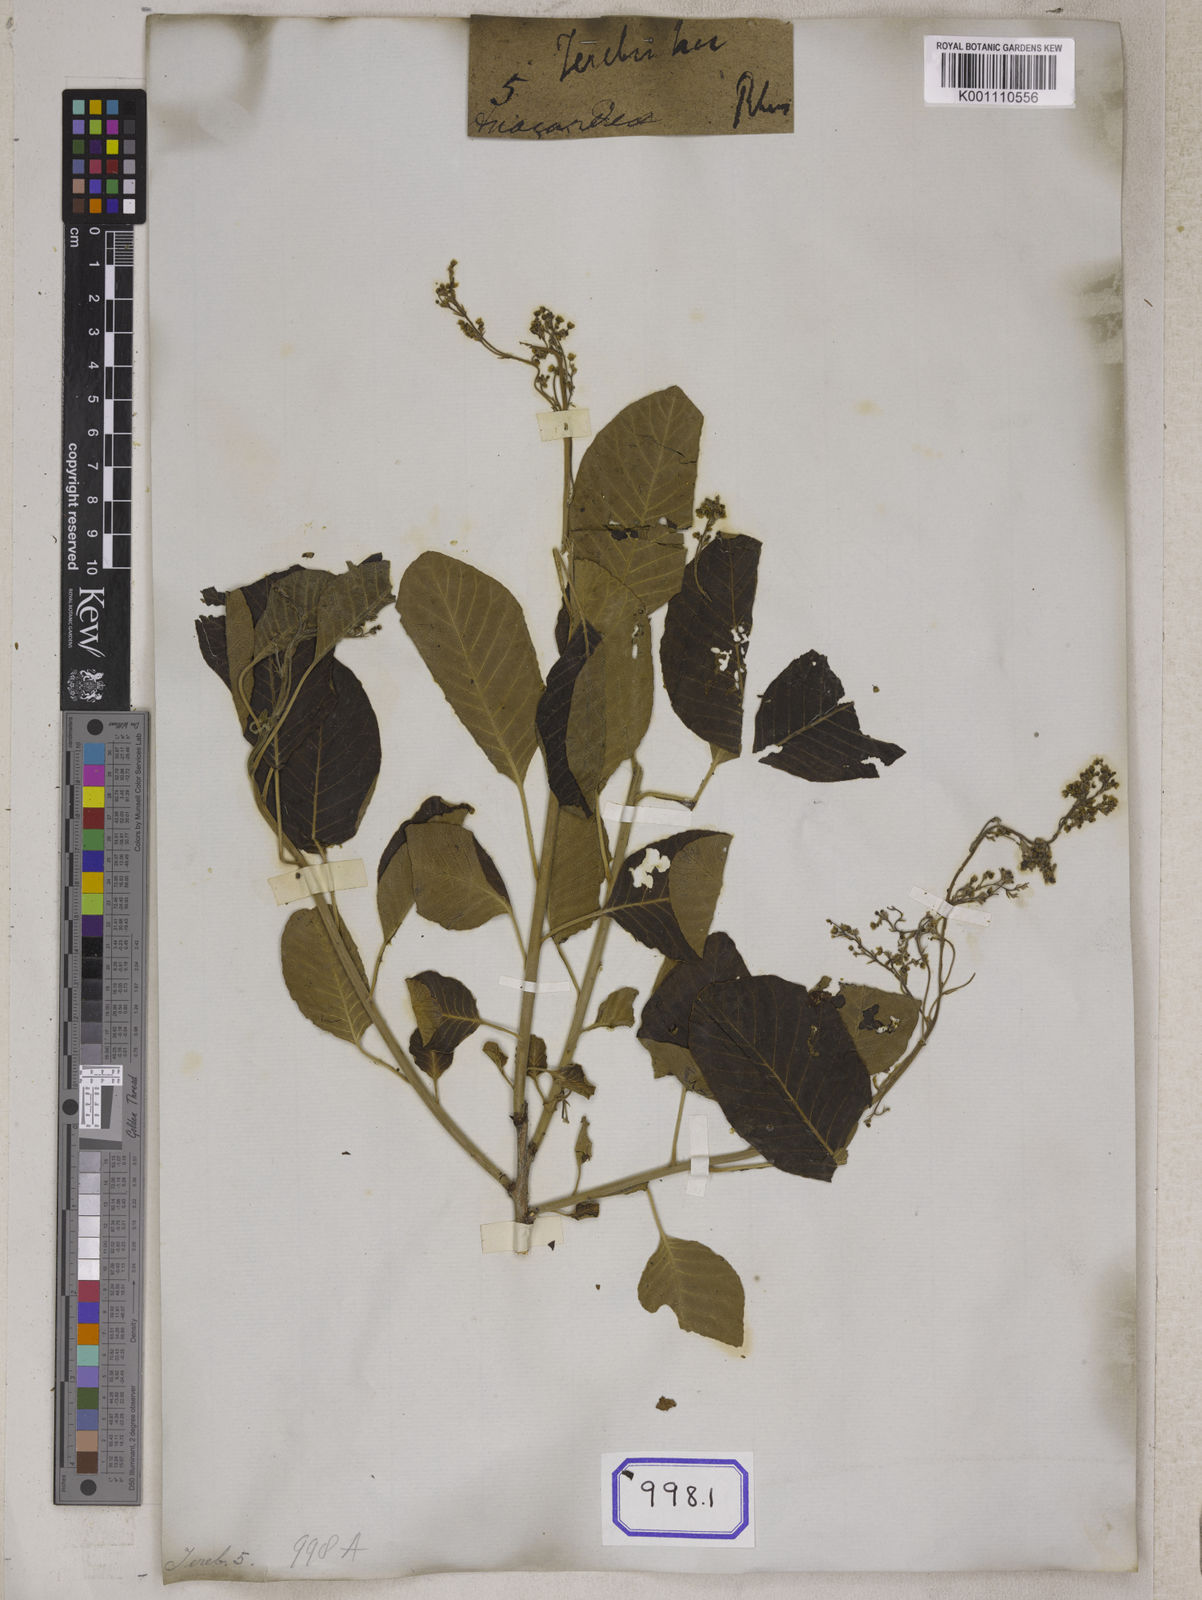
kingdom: Plantae
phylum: Tracheophyta
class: Magnoliopsida
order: Sapindales
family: Anacardiaceae
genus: Rhus
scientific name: Rhus
